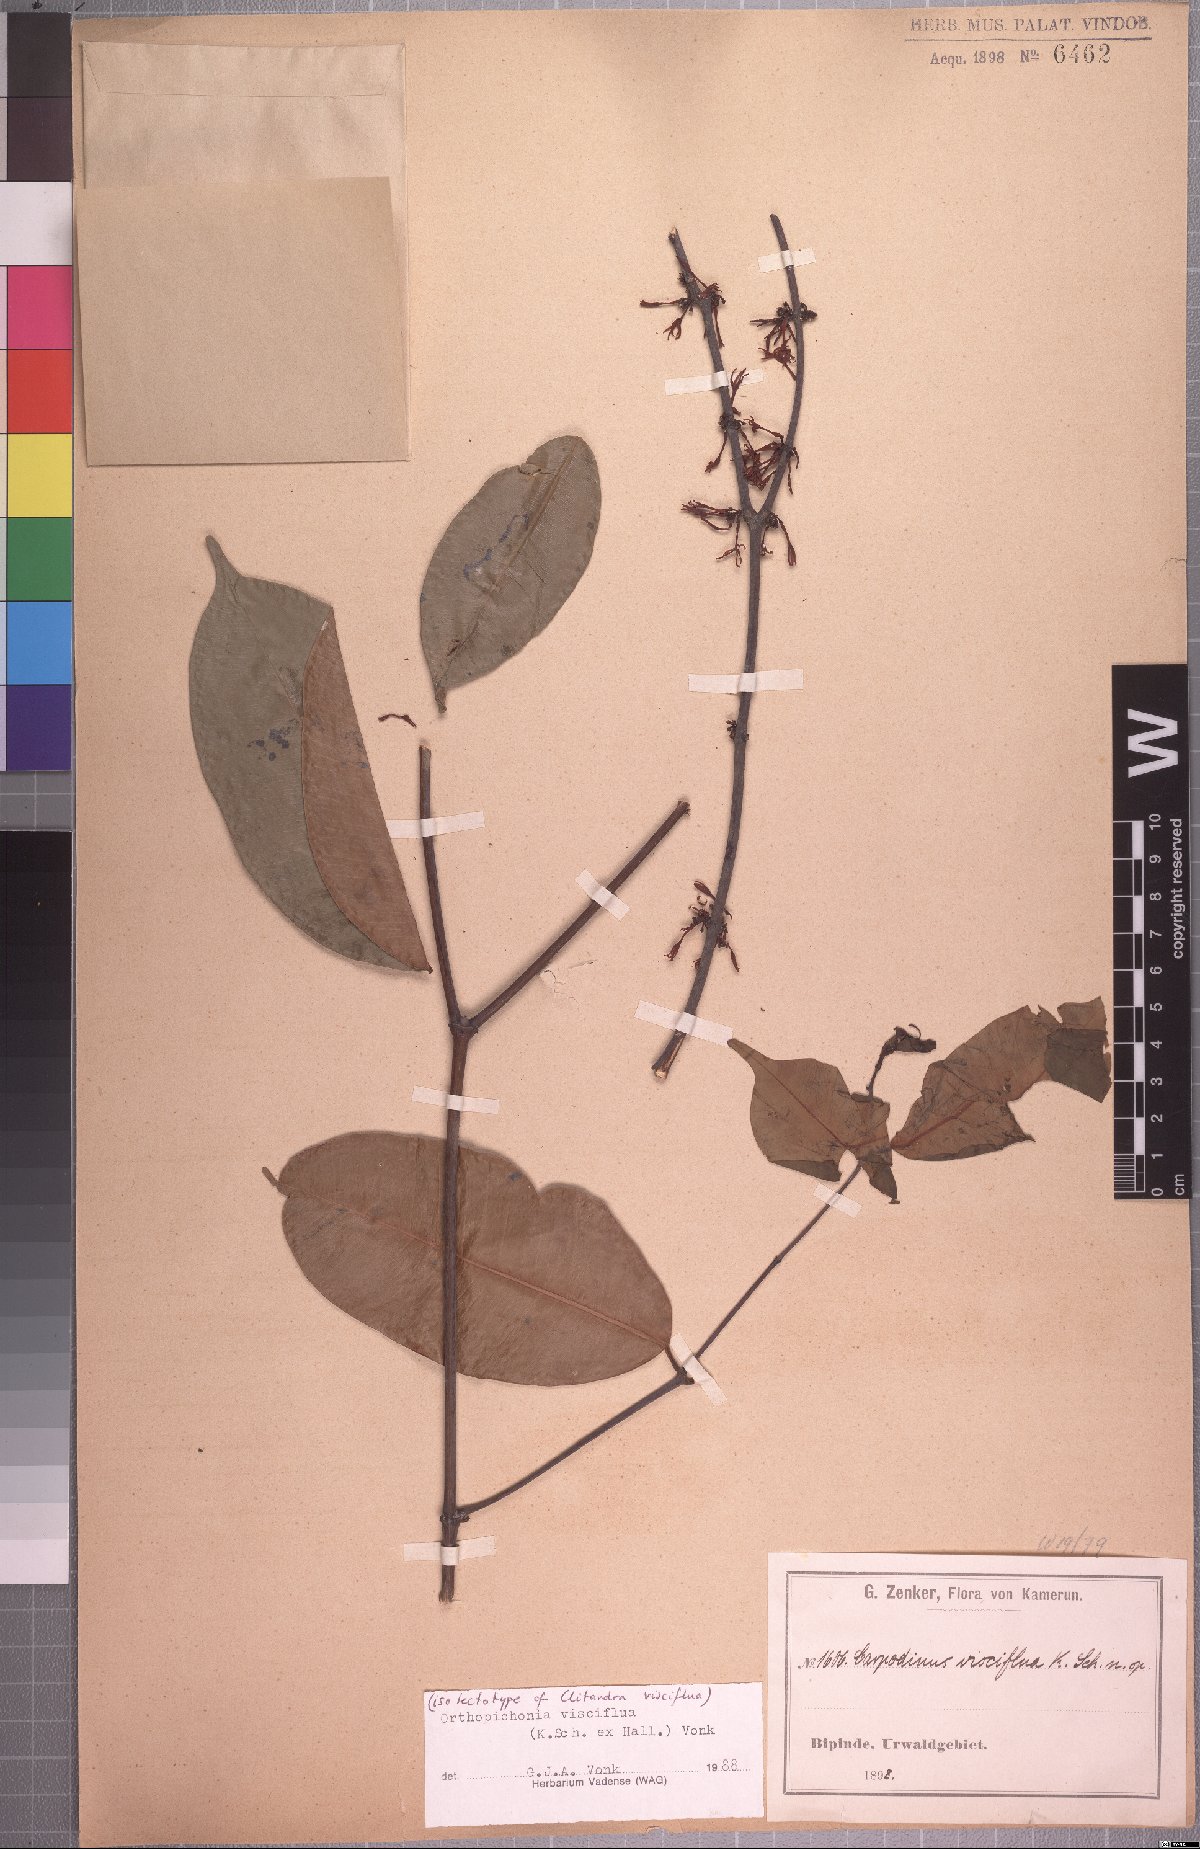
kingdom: Plantae
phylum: Tracheophyta
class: Magnoliopsida
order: Gentianales
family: Apocynaceae
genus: Orthopichonia
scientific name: Orthopichonia visciflua
